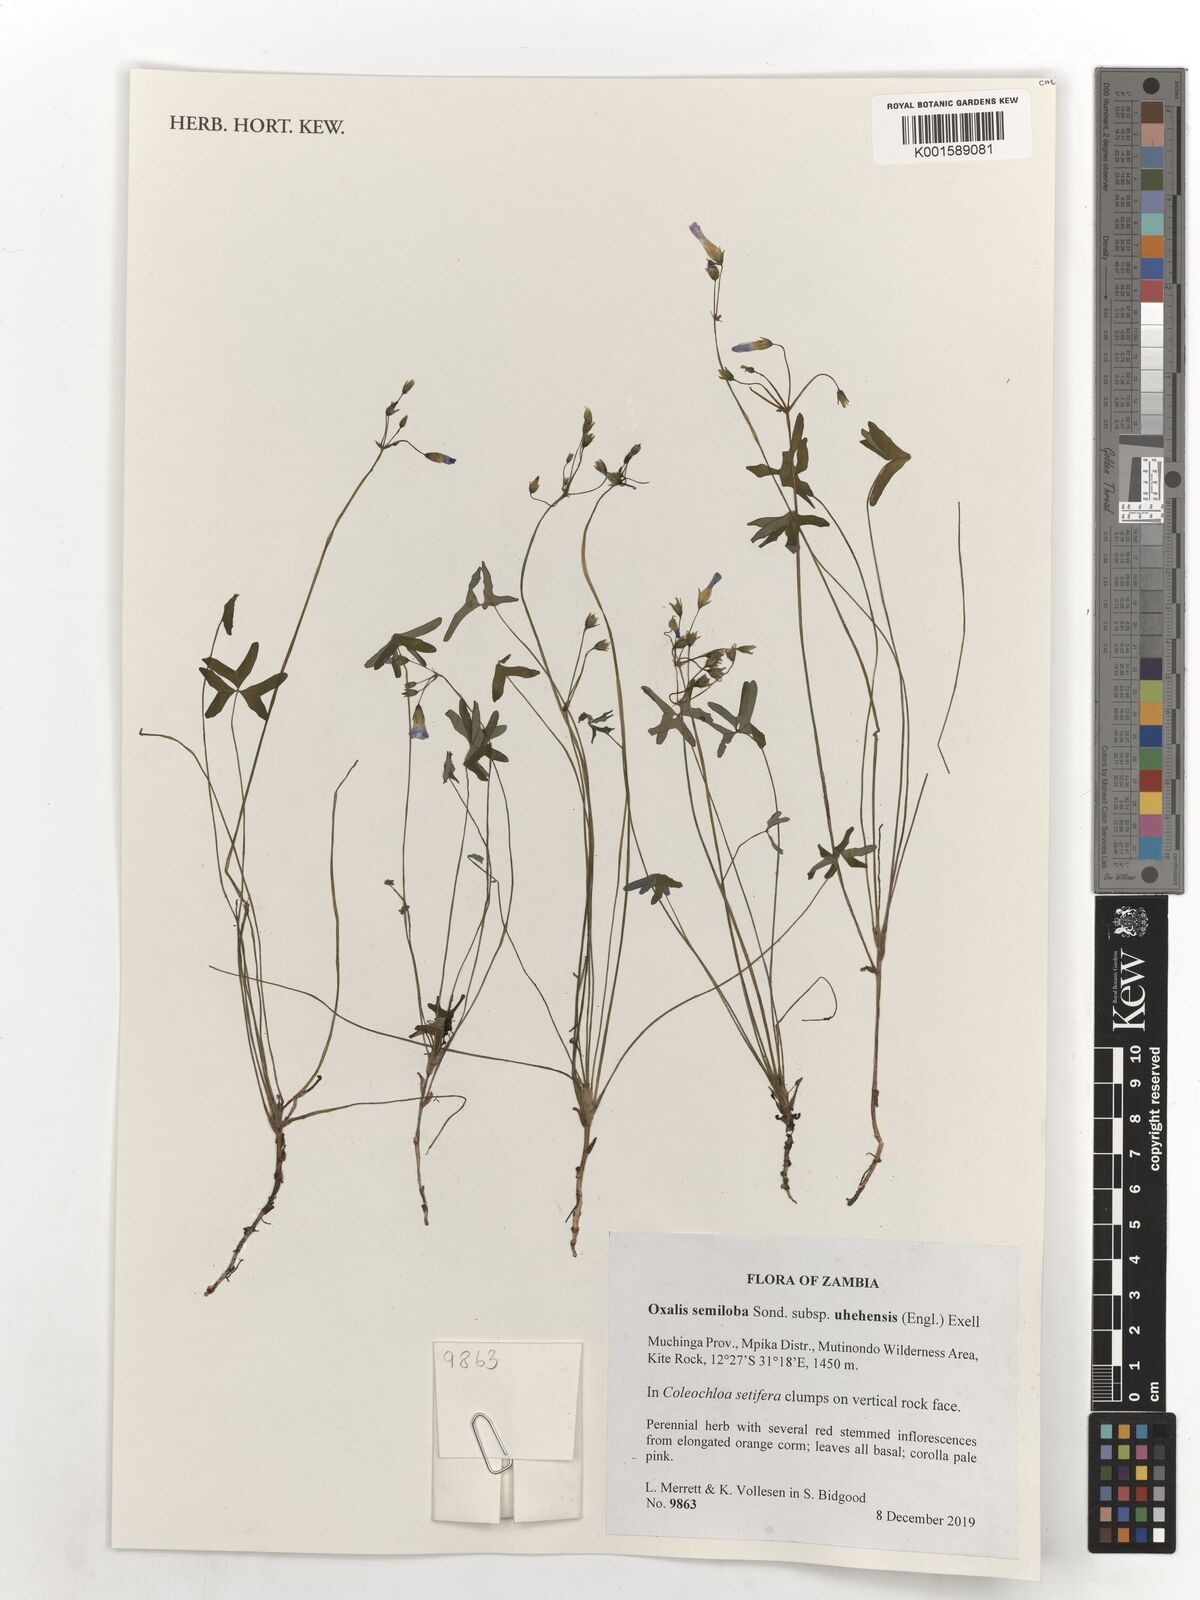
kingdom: Plantae
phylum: Tracheophyta
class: Magnoliopsida
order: Oxalidales
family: Oxalidaceae
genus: Oxalis
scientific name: Oxalis semiloba
